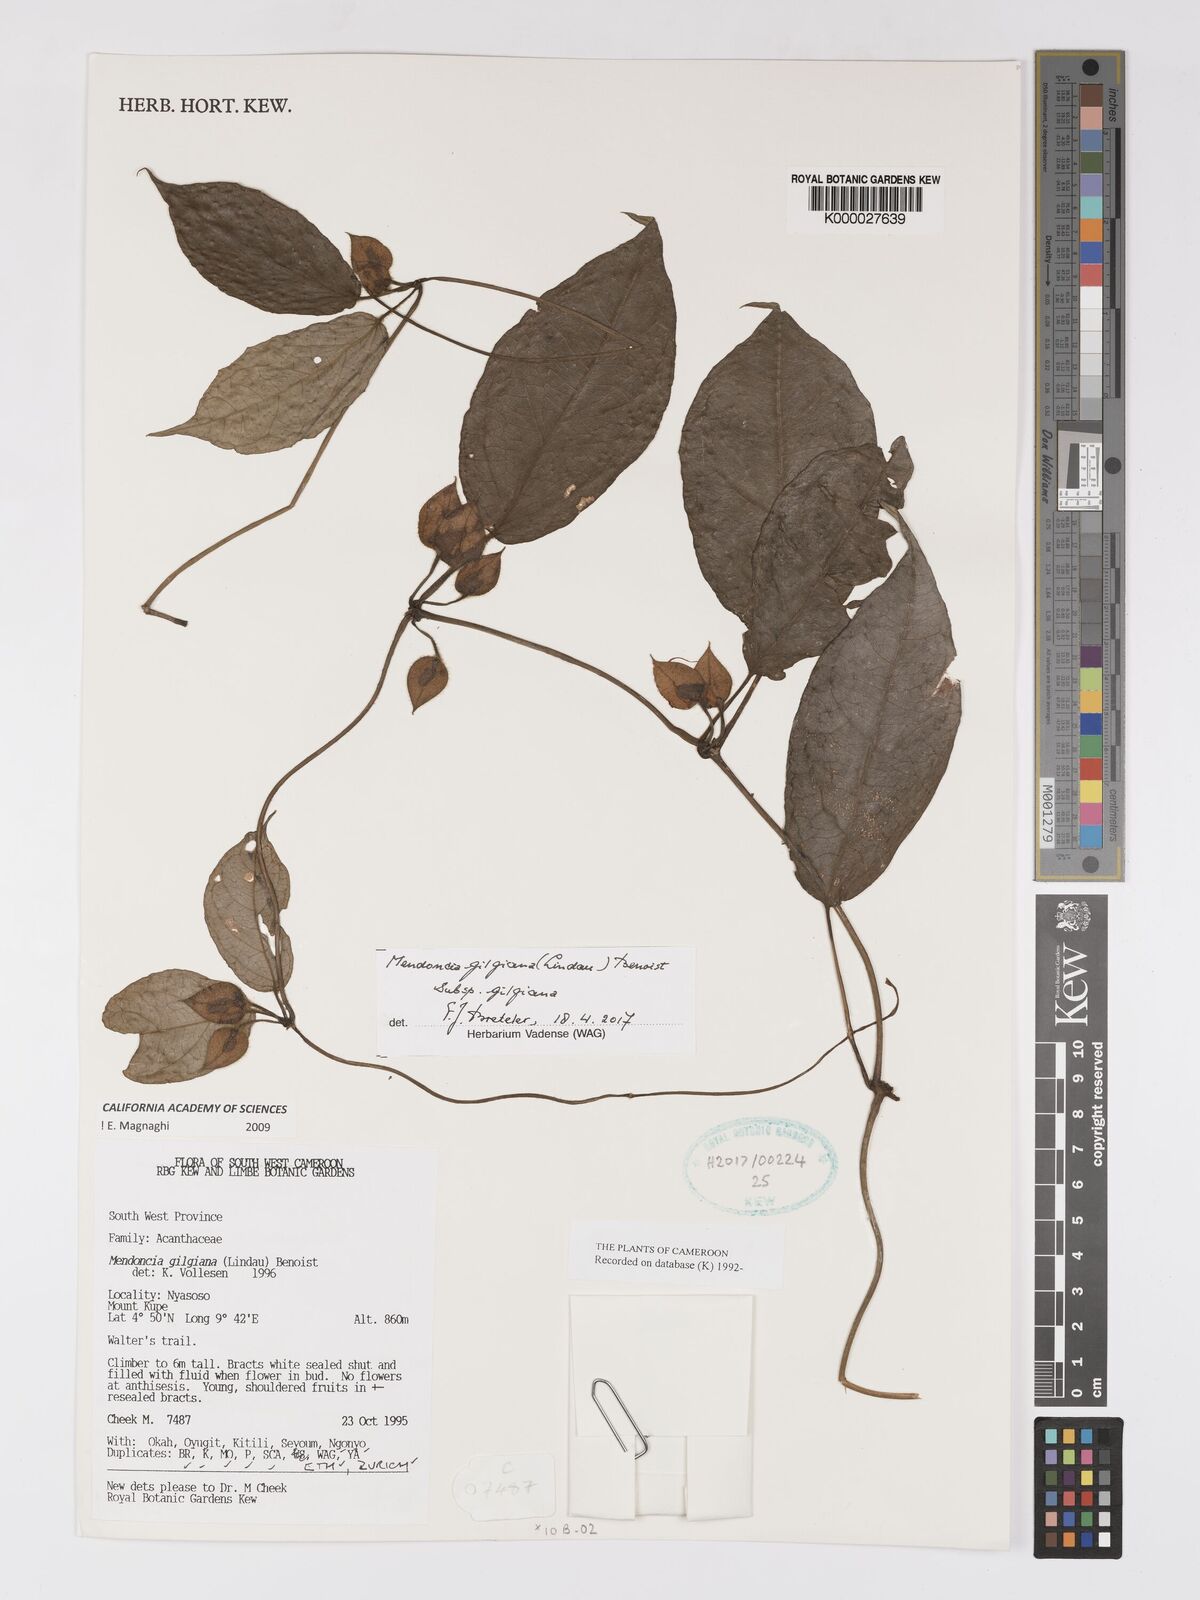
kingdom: Plantae
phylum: Tracheophyta
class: Magnoliopsida
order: Lamiales
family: Acanthaceae
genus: Mendoncia
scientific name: Mendoncia gilgiana
